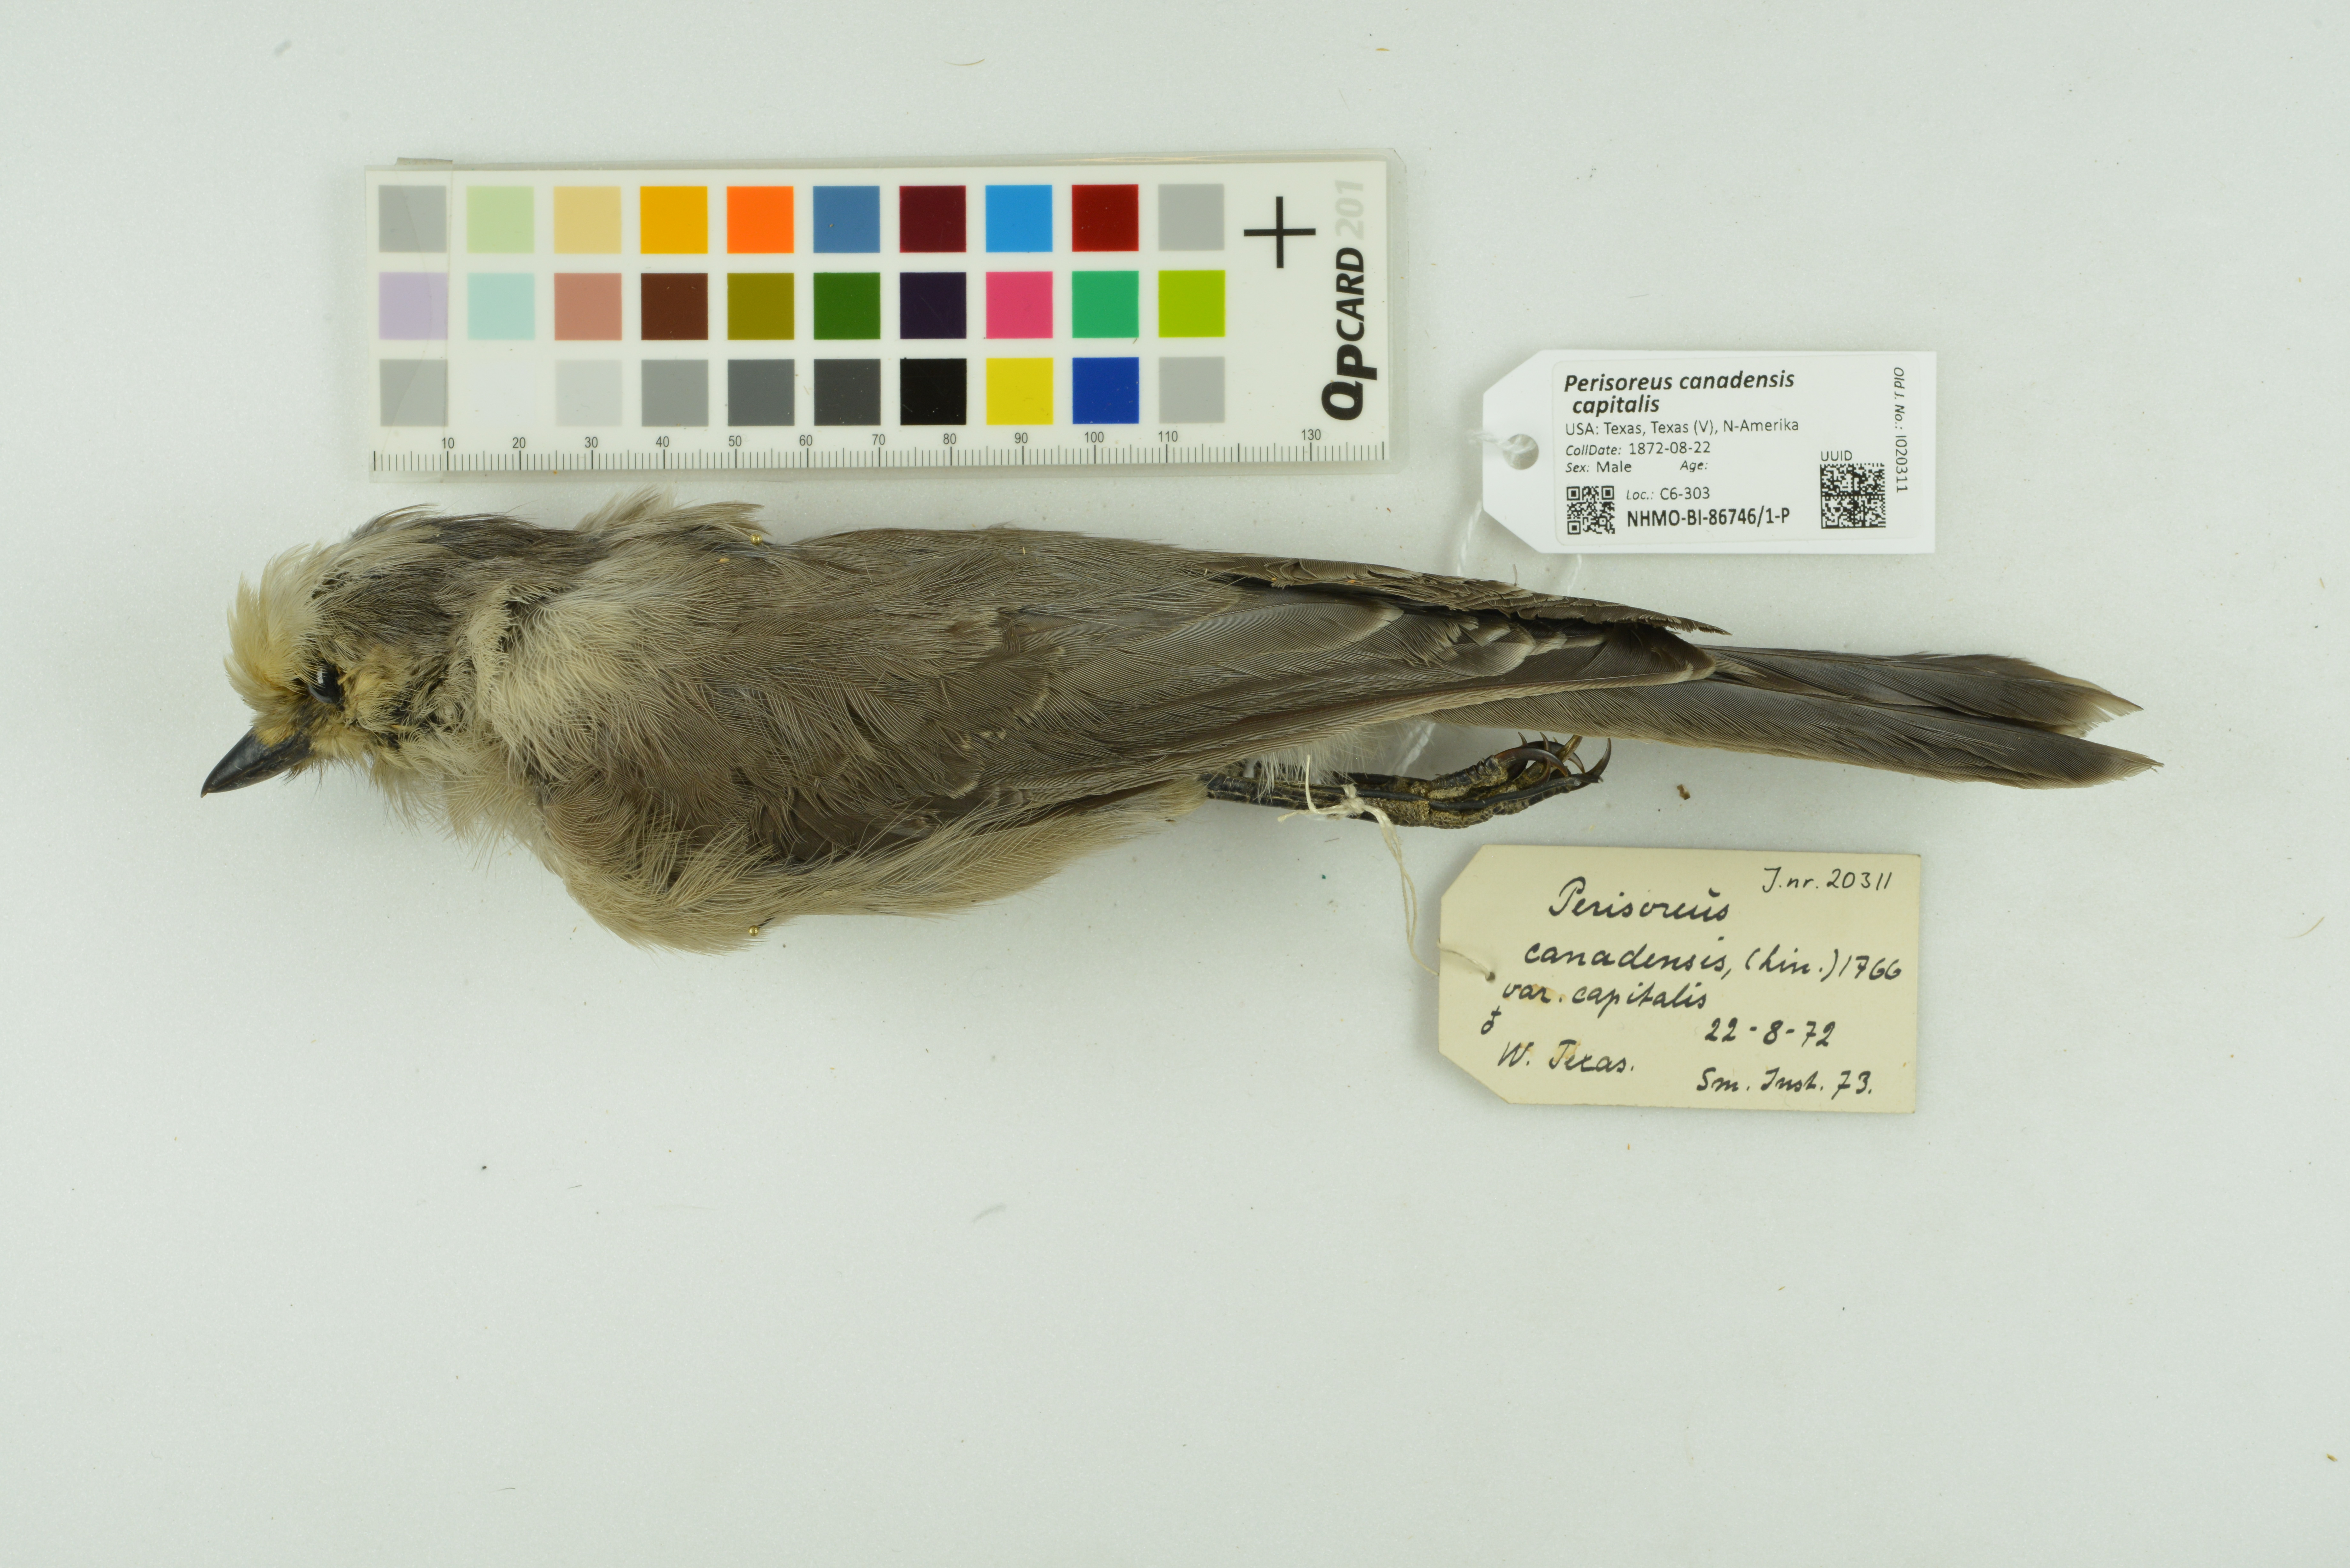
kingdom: Animalia
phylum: Chordata
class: Aves
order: Passeriformes
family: Corvidae
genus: Perisoreus
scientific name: Perisoreus canadensis
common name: Gray jay
